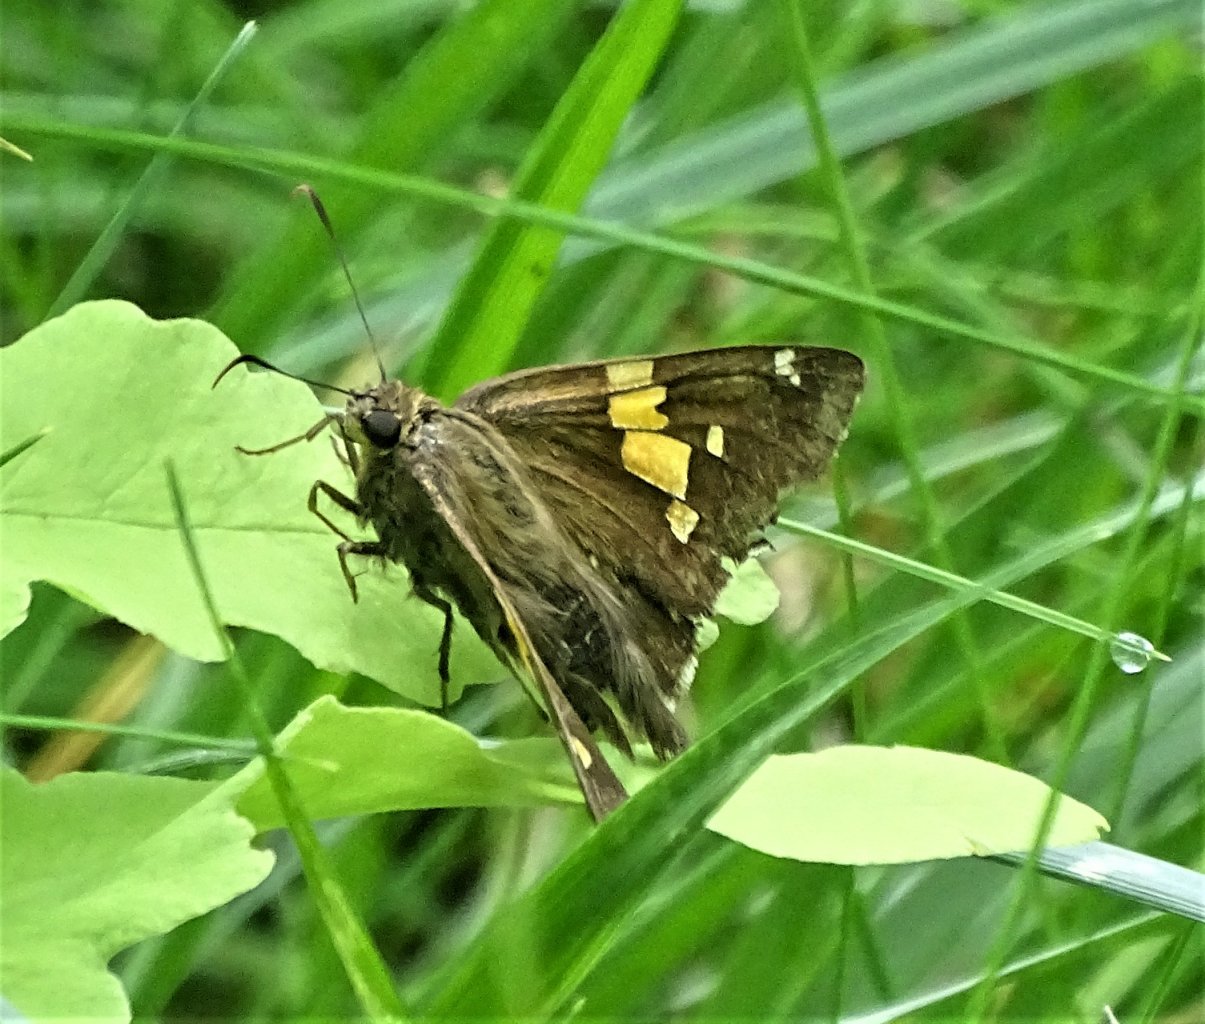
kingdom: Animalia
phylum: Arthropoda
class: Insecta
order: Lepidoptera
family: Hesperiidae
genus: Epargyreus
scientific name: Epargyreus clarus
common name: Silver-spotted Skipper
